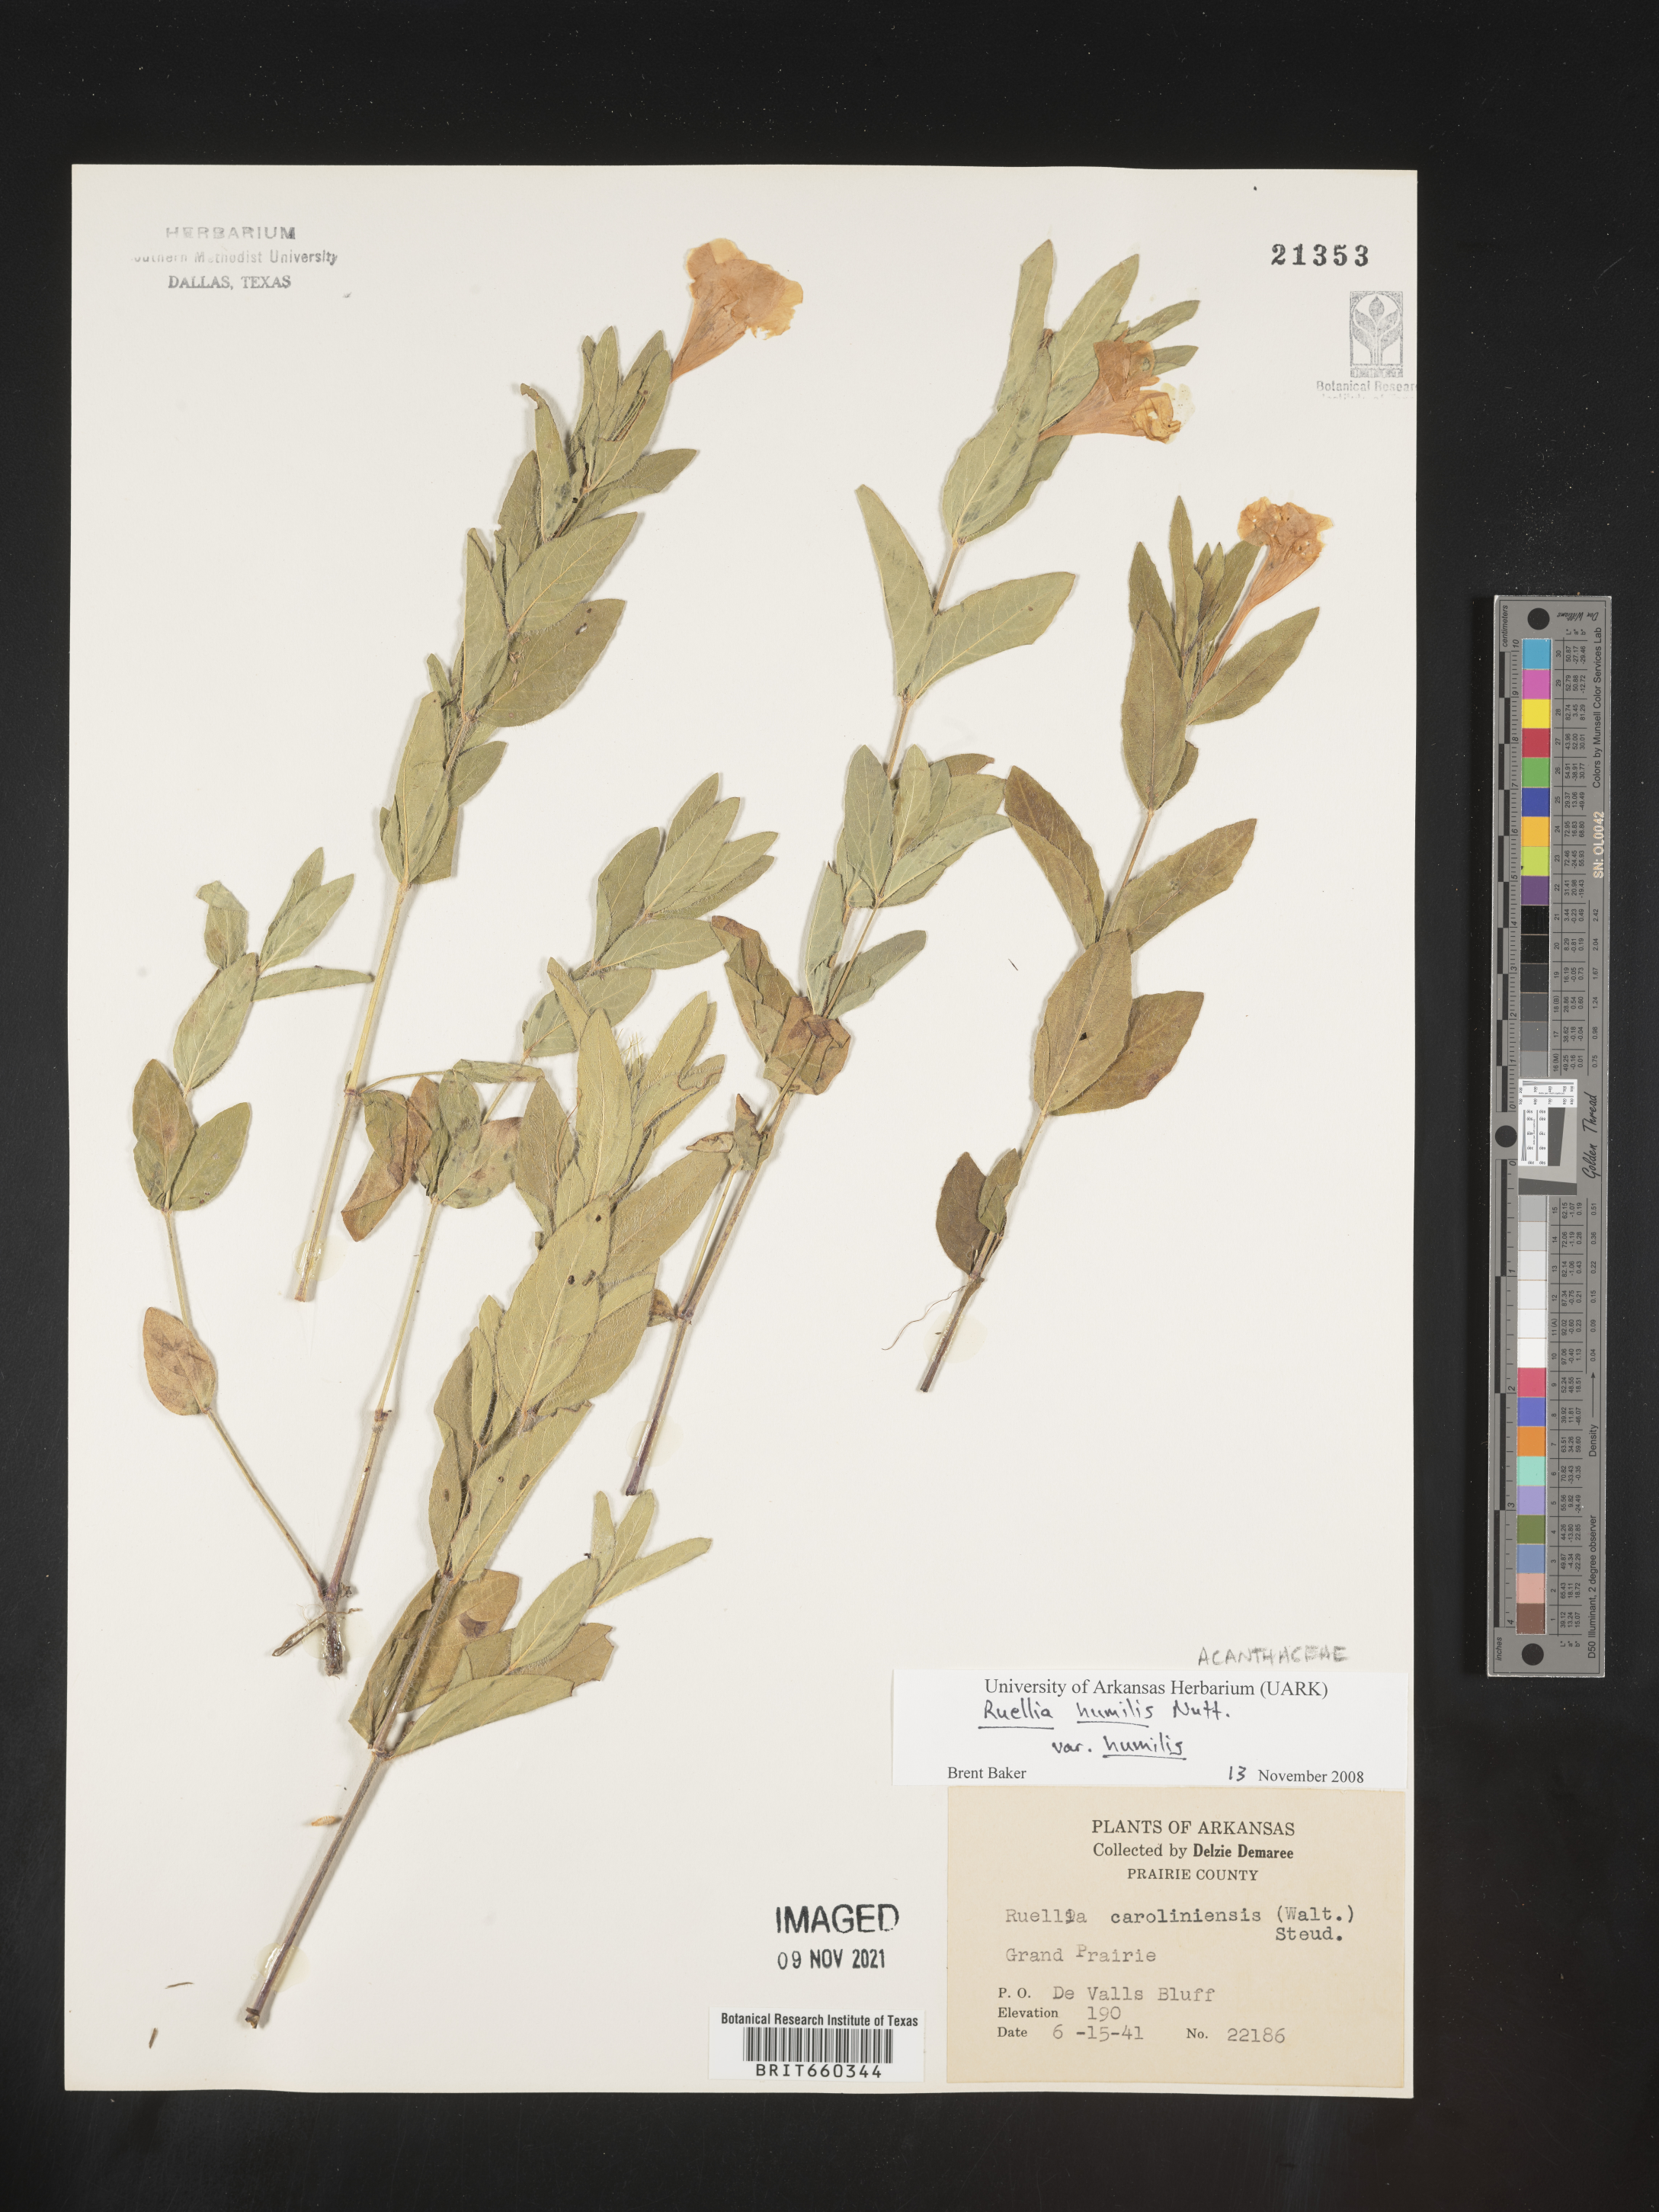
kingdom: Plantae
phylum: Tracheophyta
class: Magnoliopsida
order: Lamiales
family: Acanthaceae
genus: Ruellia
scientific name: Ruellia humilis
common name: Fringe-leaf ruellia
